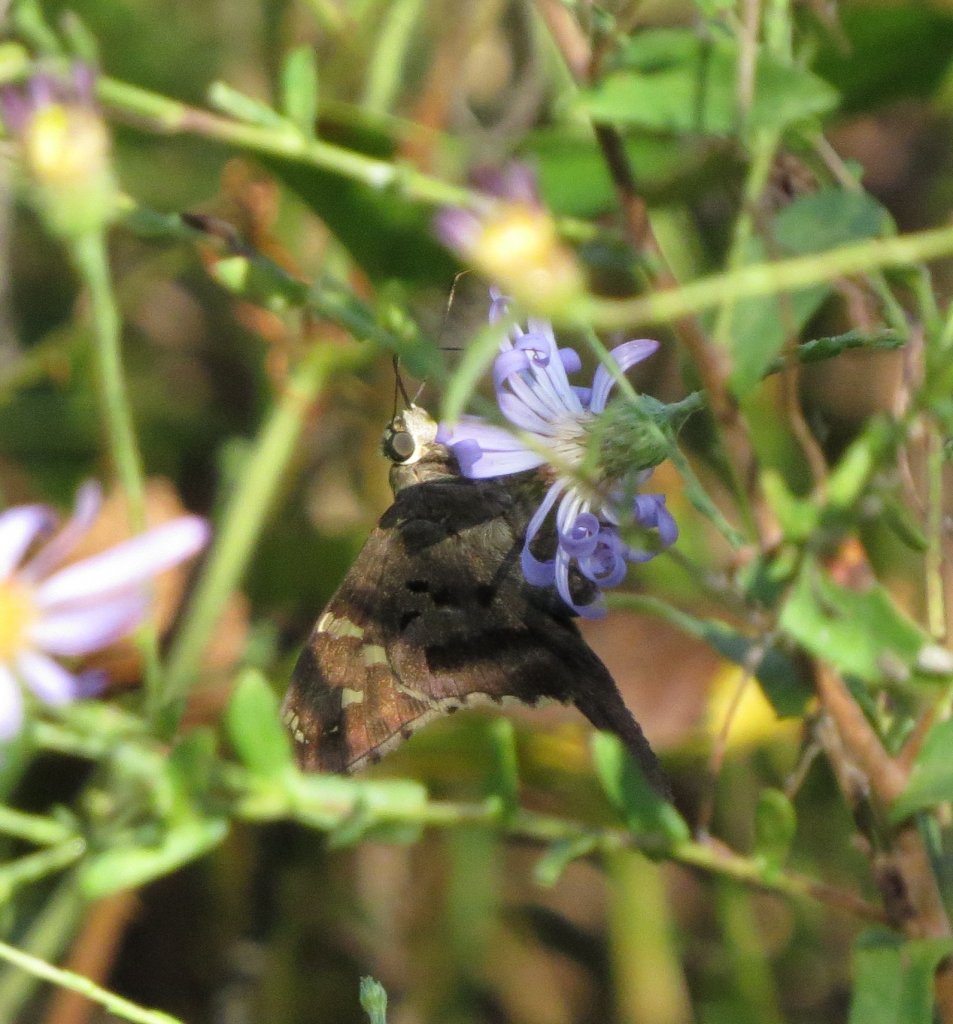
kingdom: Animalia
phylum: Arthropoda
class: Insecta
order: Lepidoptera
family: Hesperiidae
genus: Lerema
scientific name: Lerema accius
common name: Clouded Skipper
